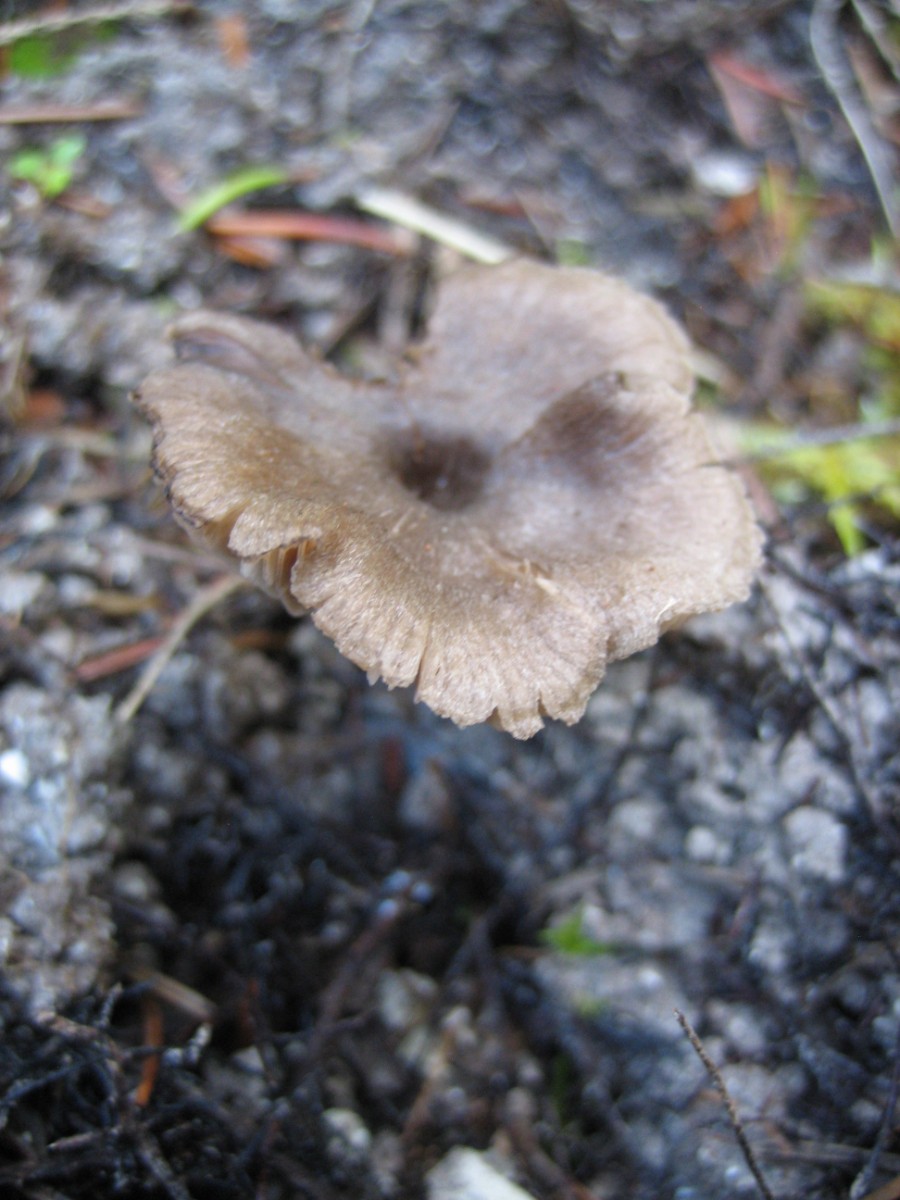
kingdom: Fungi
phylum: Basidiomycota
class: Agaricomycetes
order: Agaricales
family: Entolomataceae
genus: Entoloma
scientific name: Entoloma
